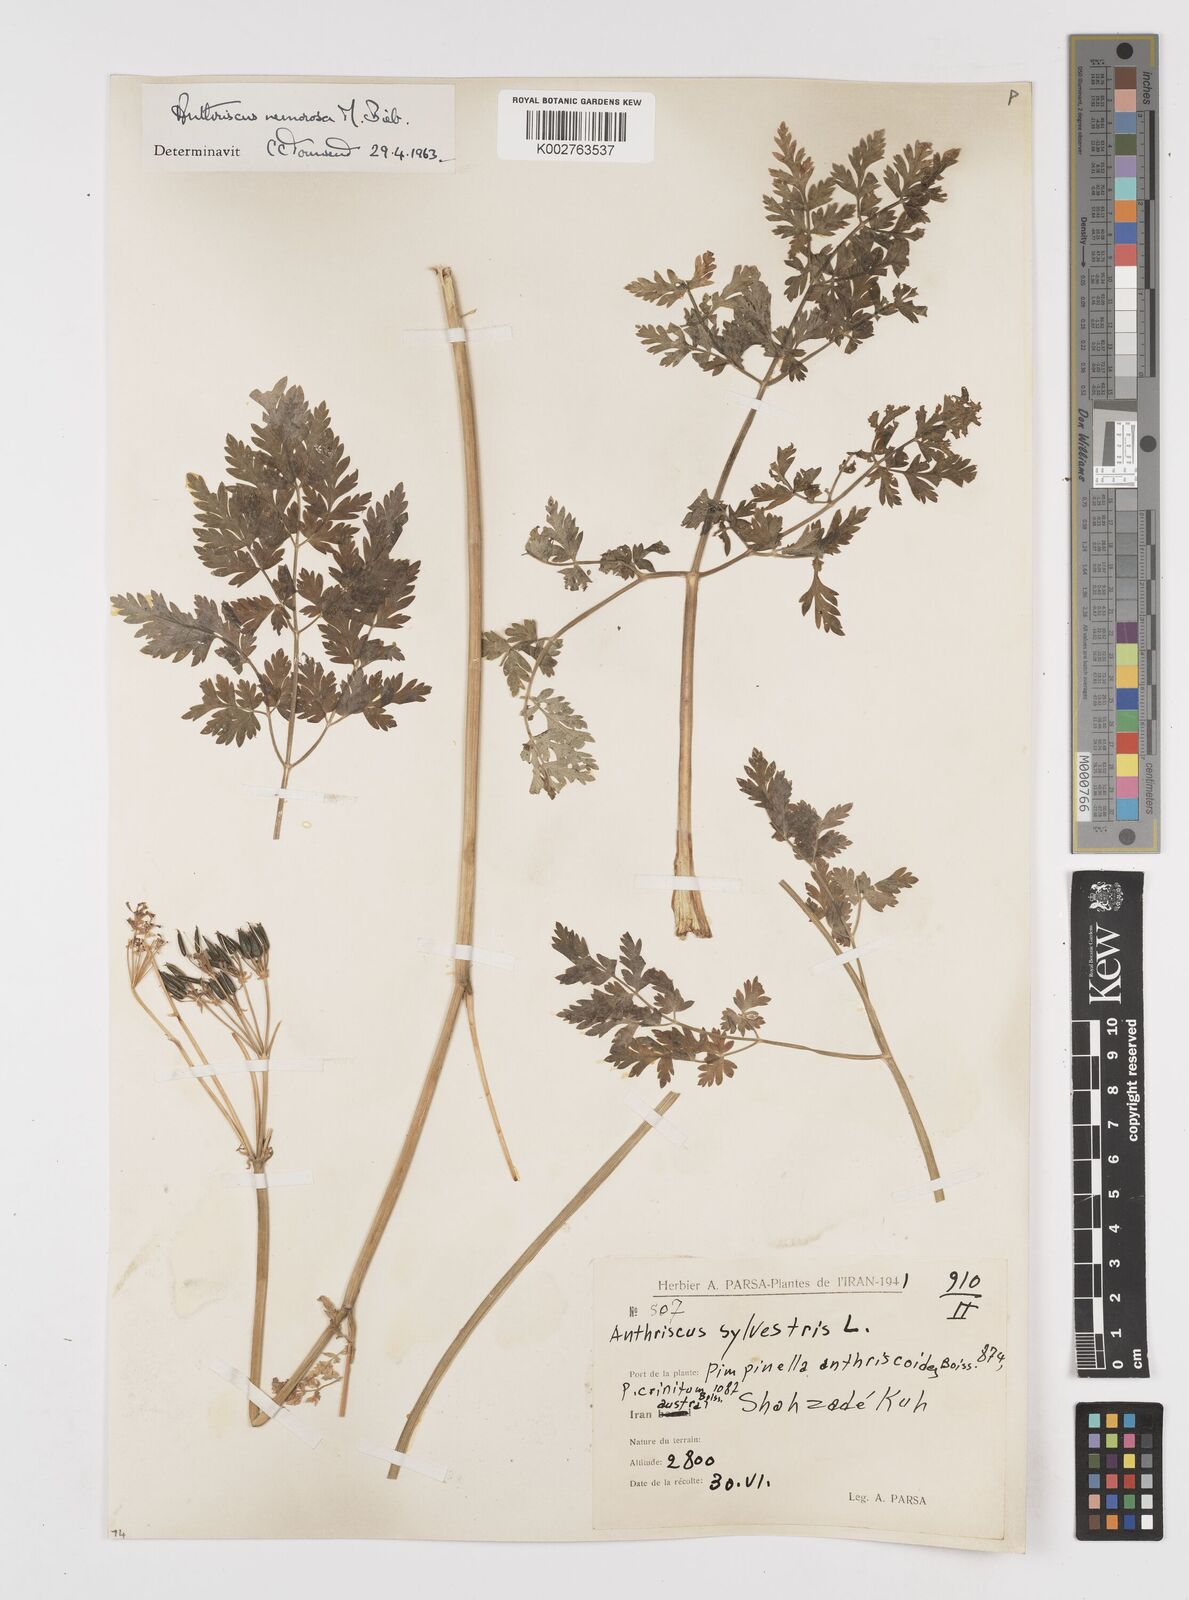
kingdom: Plantae
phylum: Tracheophyta
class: Magnoliopsida
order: Apiales
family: Apiaceae
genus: Anthriscus
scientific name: Anthriscus sylvestris
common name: Cow parsley
